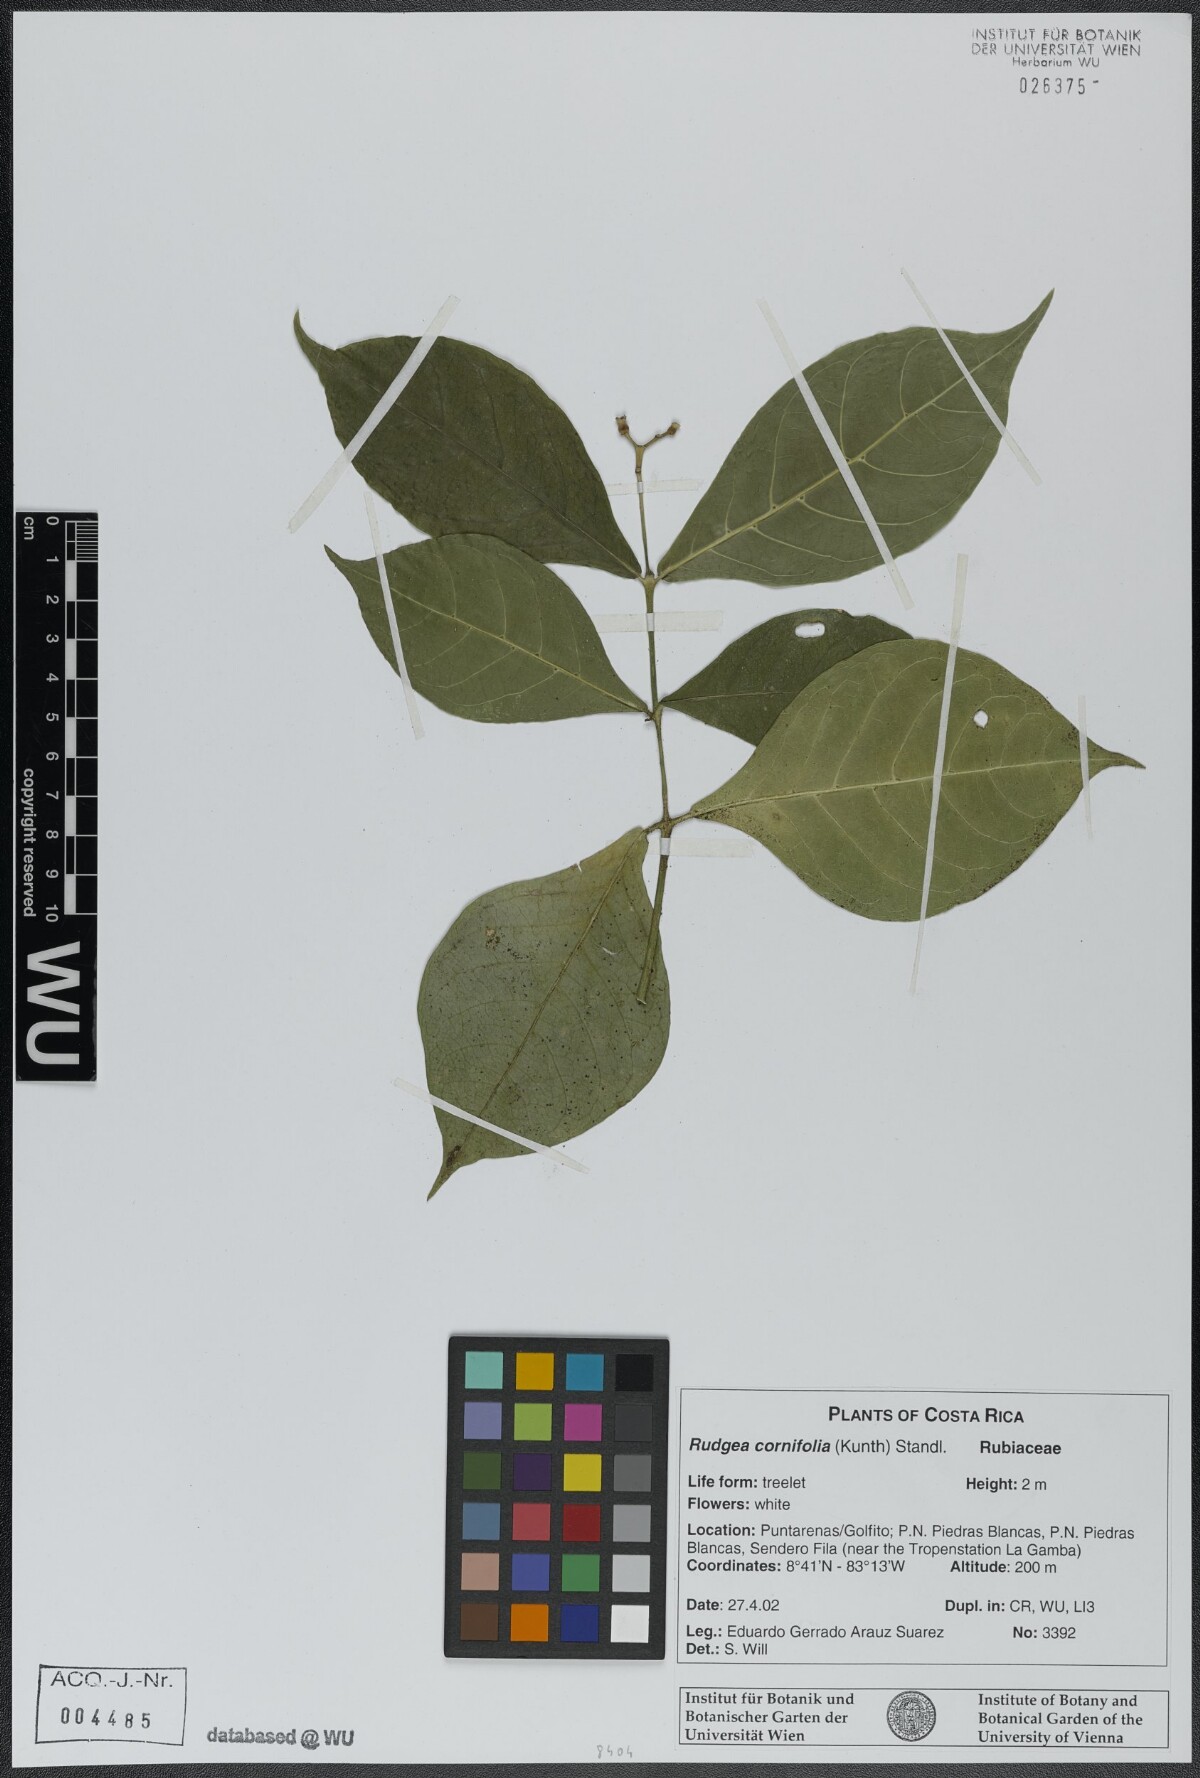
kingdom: Plantae
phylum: Tracheophyta
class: Magnoliopsida
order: Gentianales
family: Rubiaceae
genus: Rudgea
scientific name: Rudgea cornifolia
